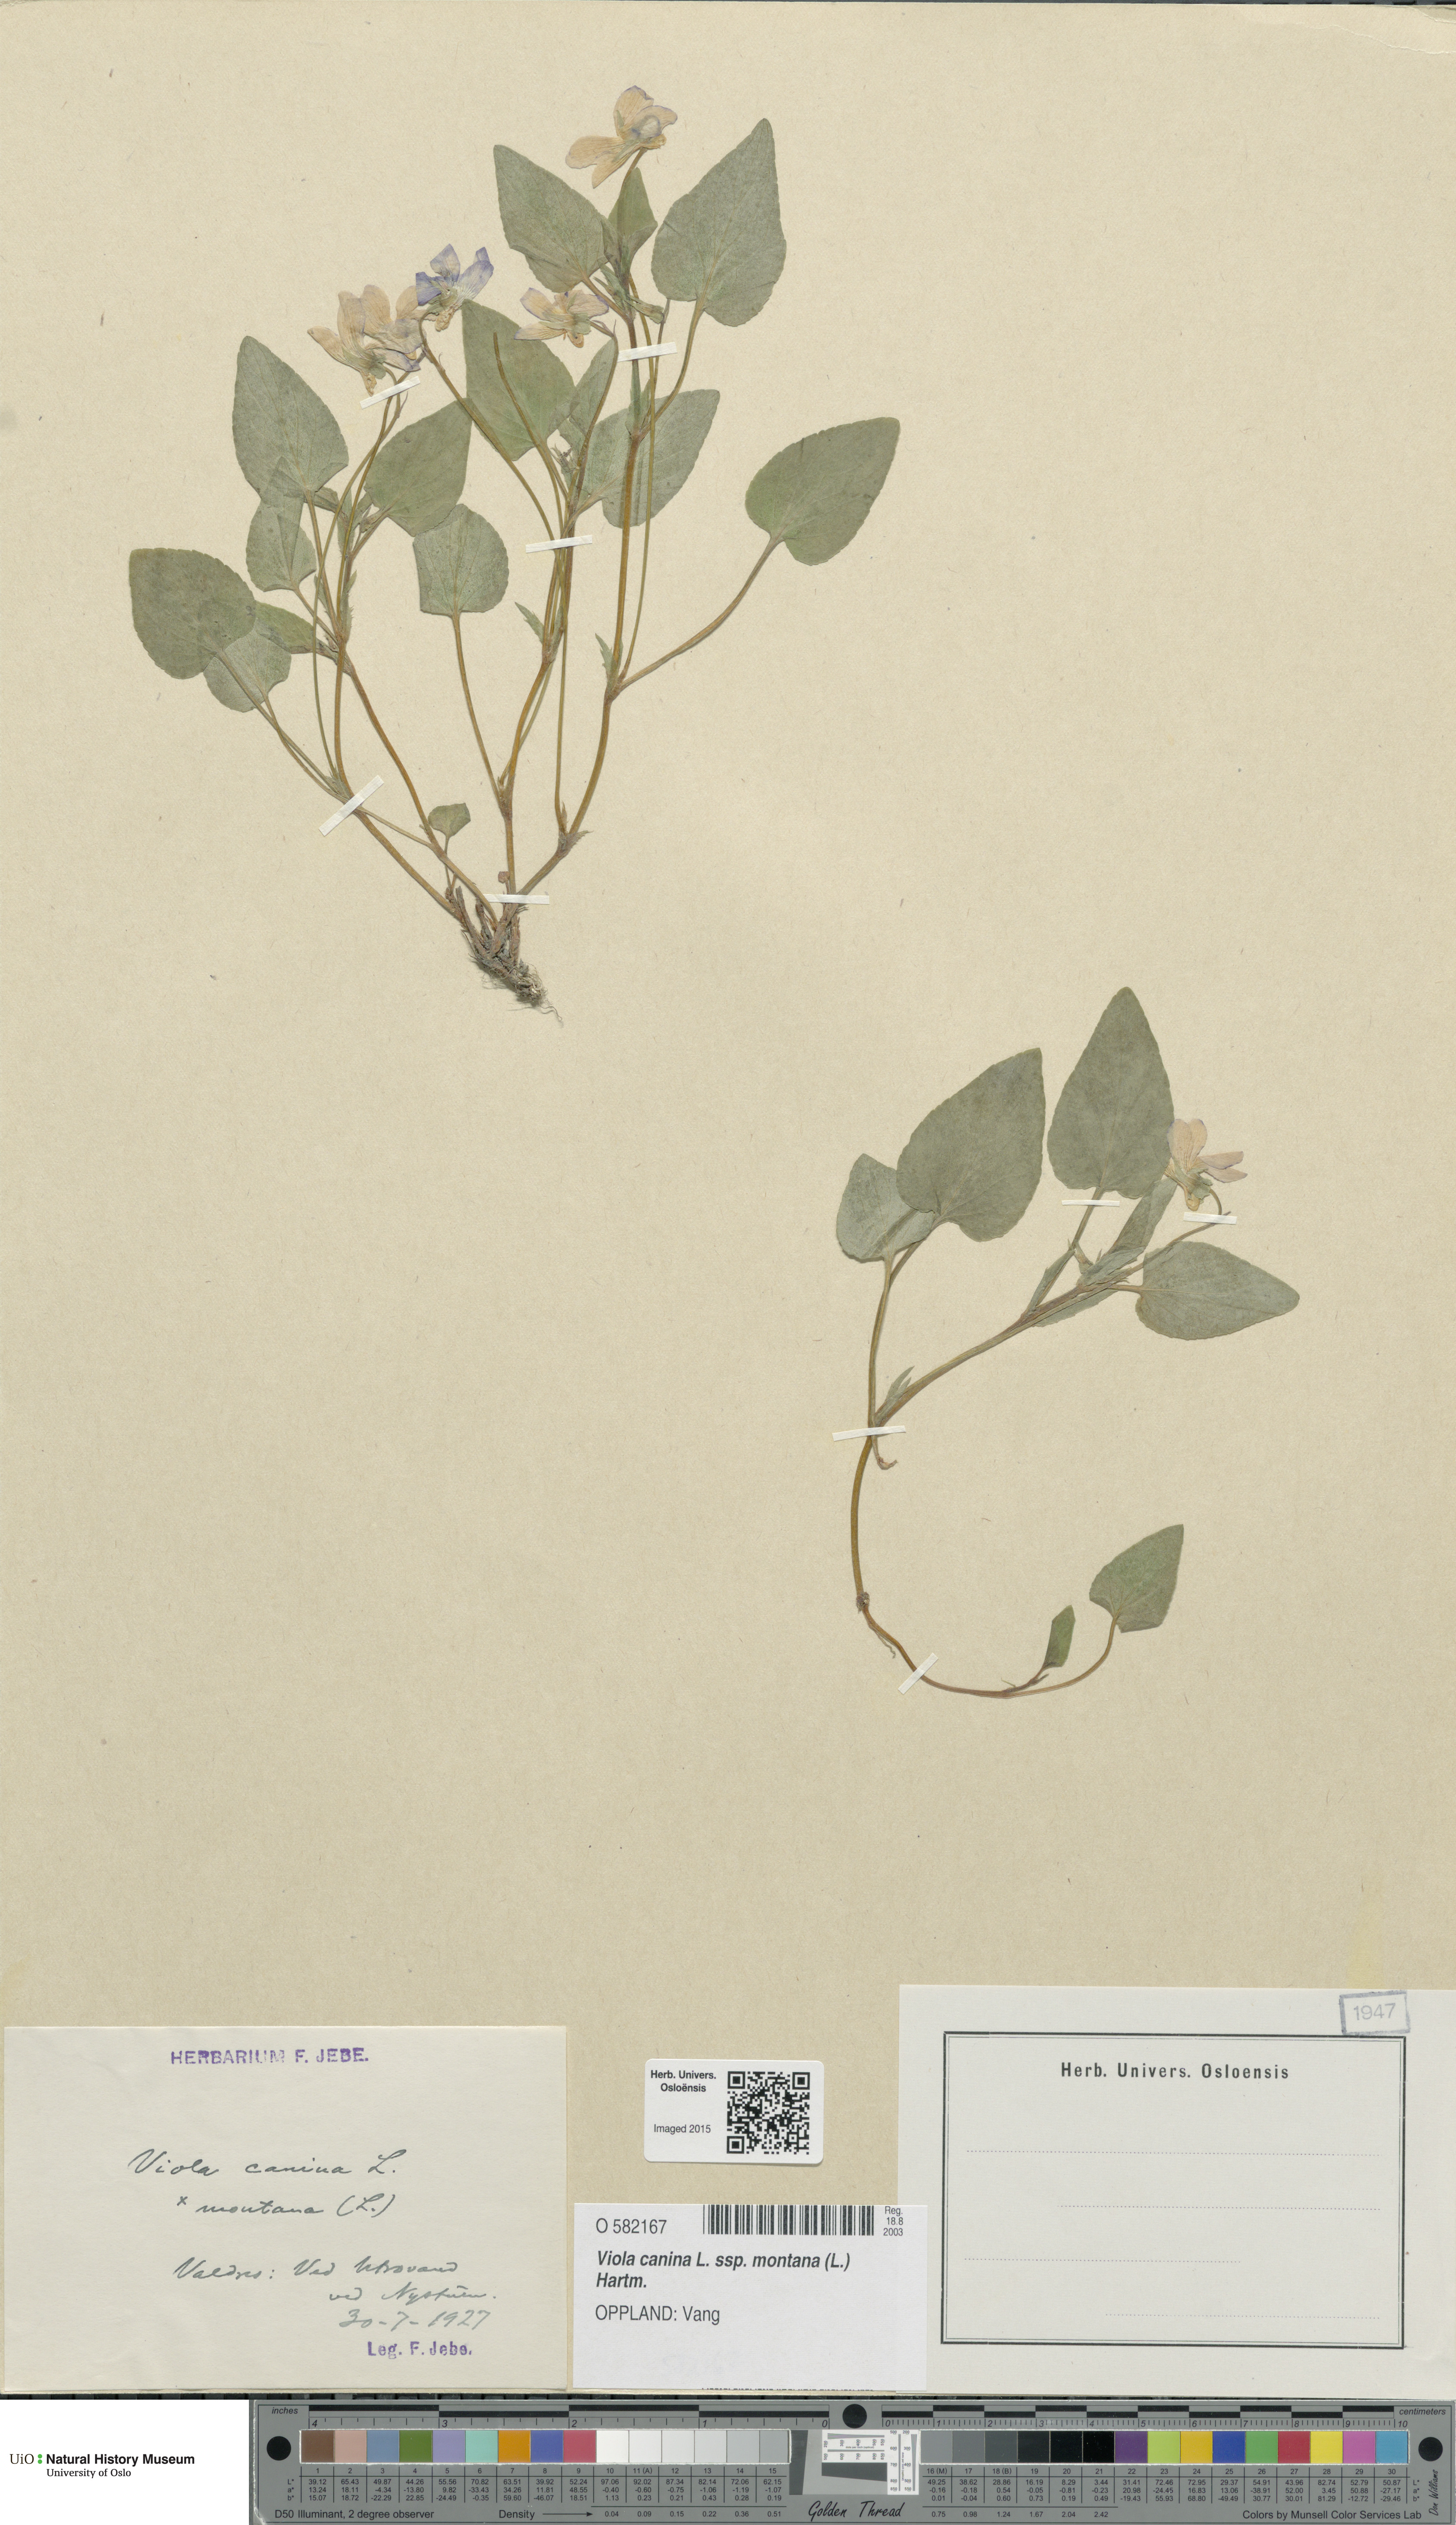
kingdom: Plantae
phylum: Tracheophyta
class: Magnoliopsida
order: Malpighiales
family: Violaceae
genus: Viola
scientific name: Viola ruppii
